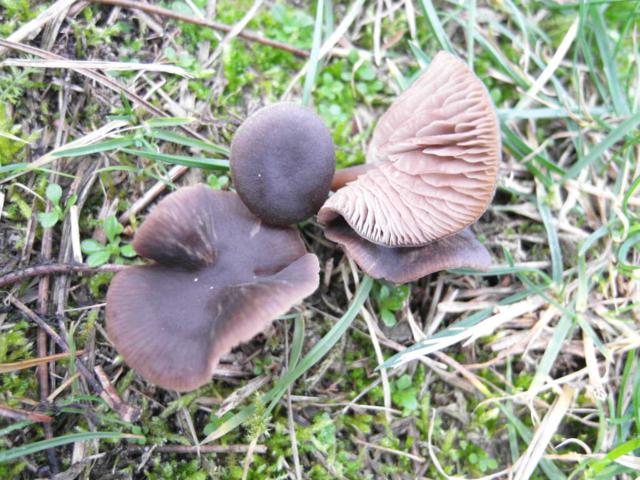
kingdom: Fungi
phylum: Basidiomycota
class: Agaricomycetes
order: Agaricales
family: Entolomataceae
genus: Entoloma
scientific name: Entoloma vindobonense
